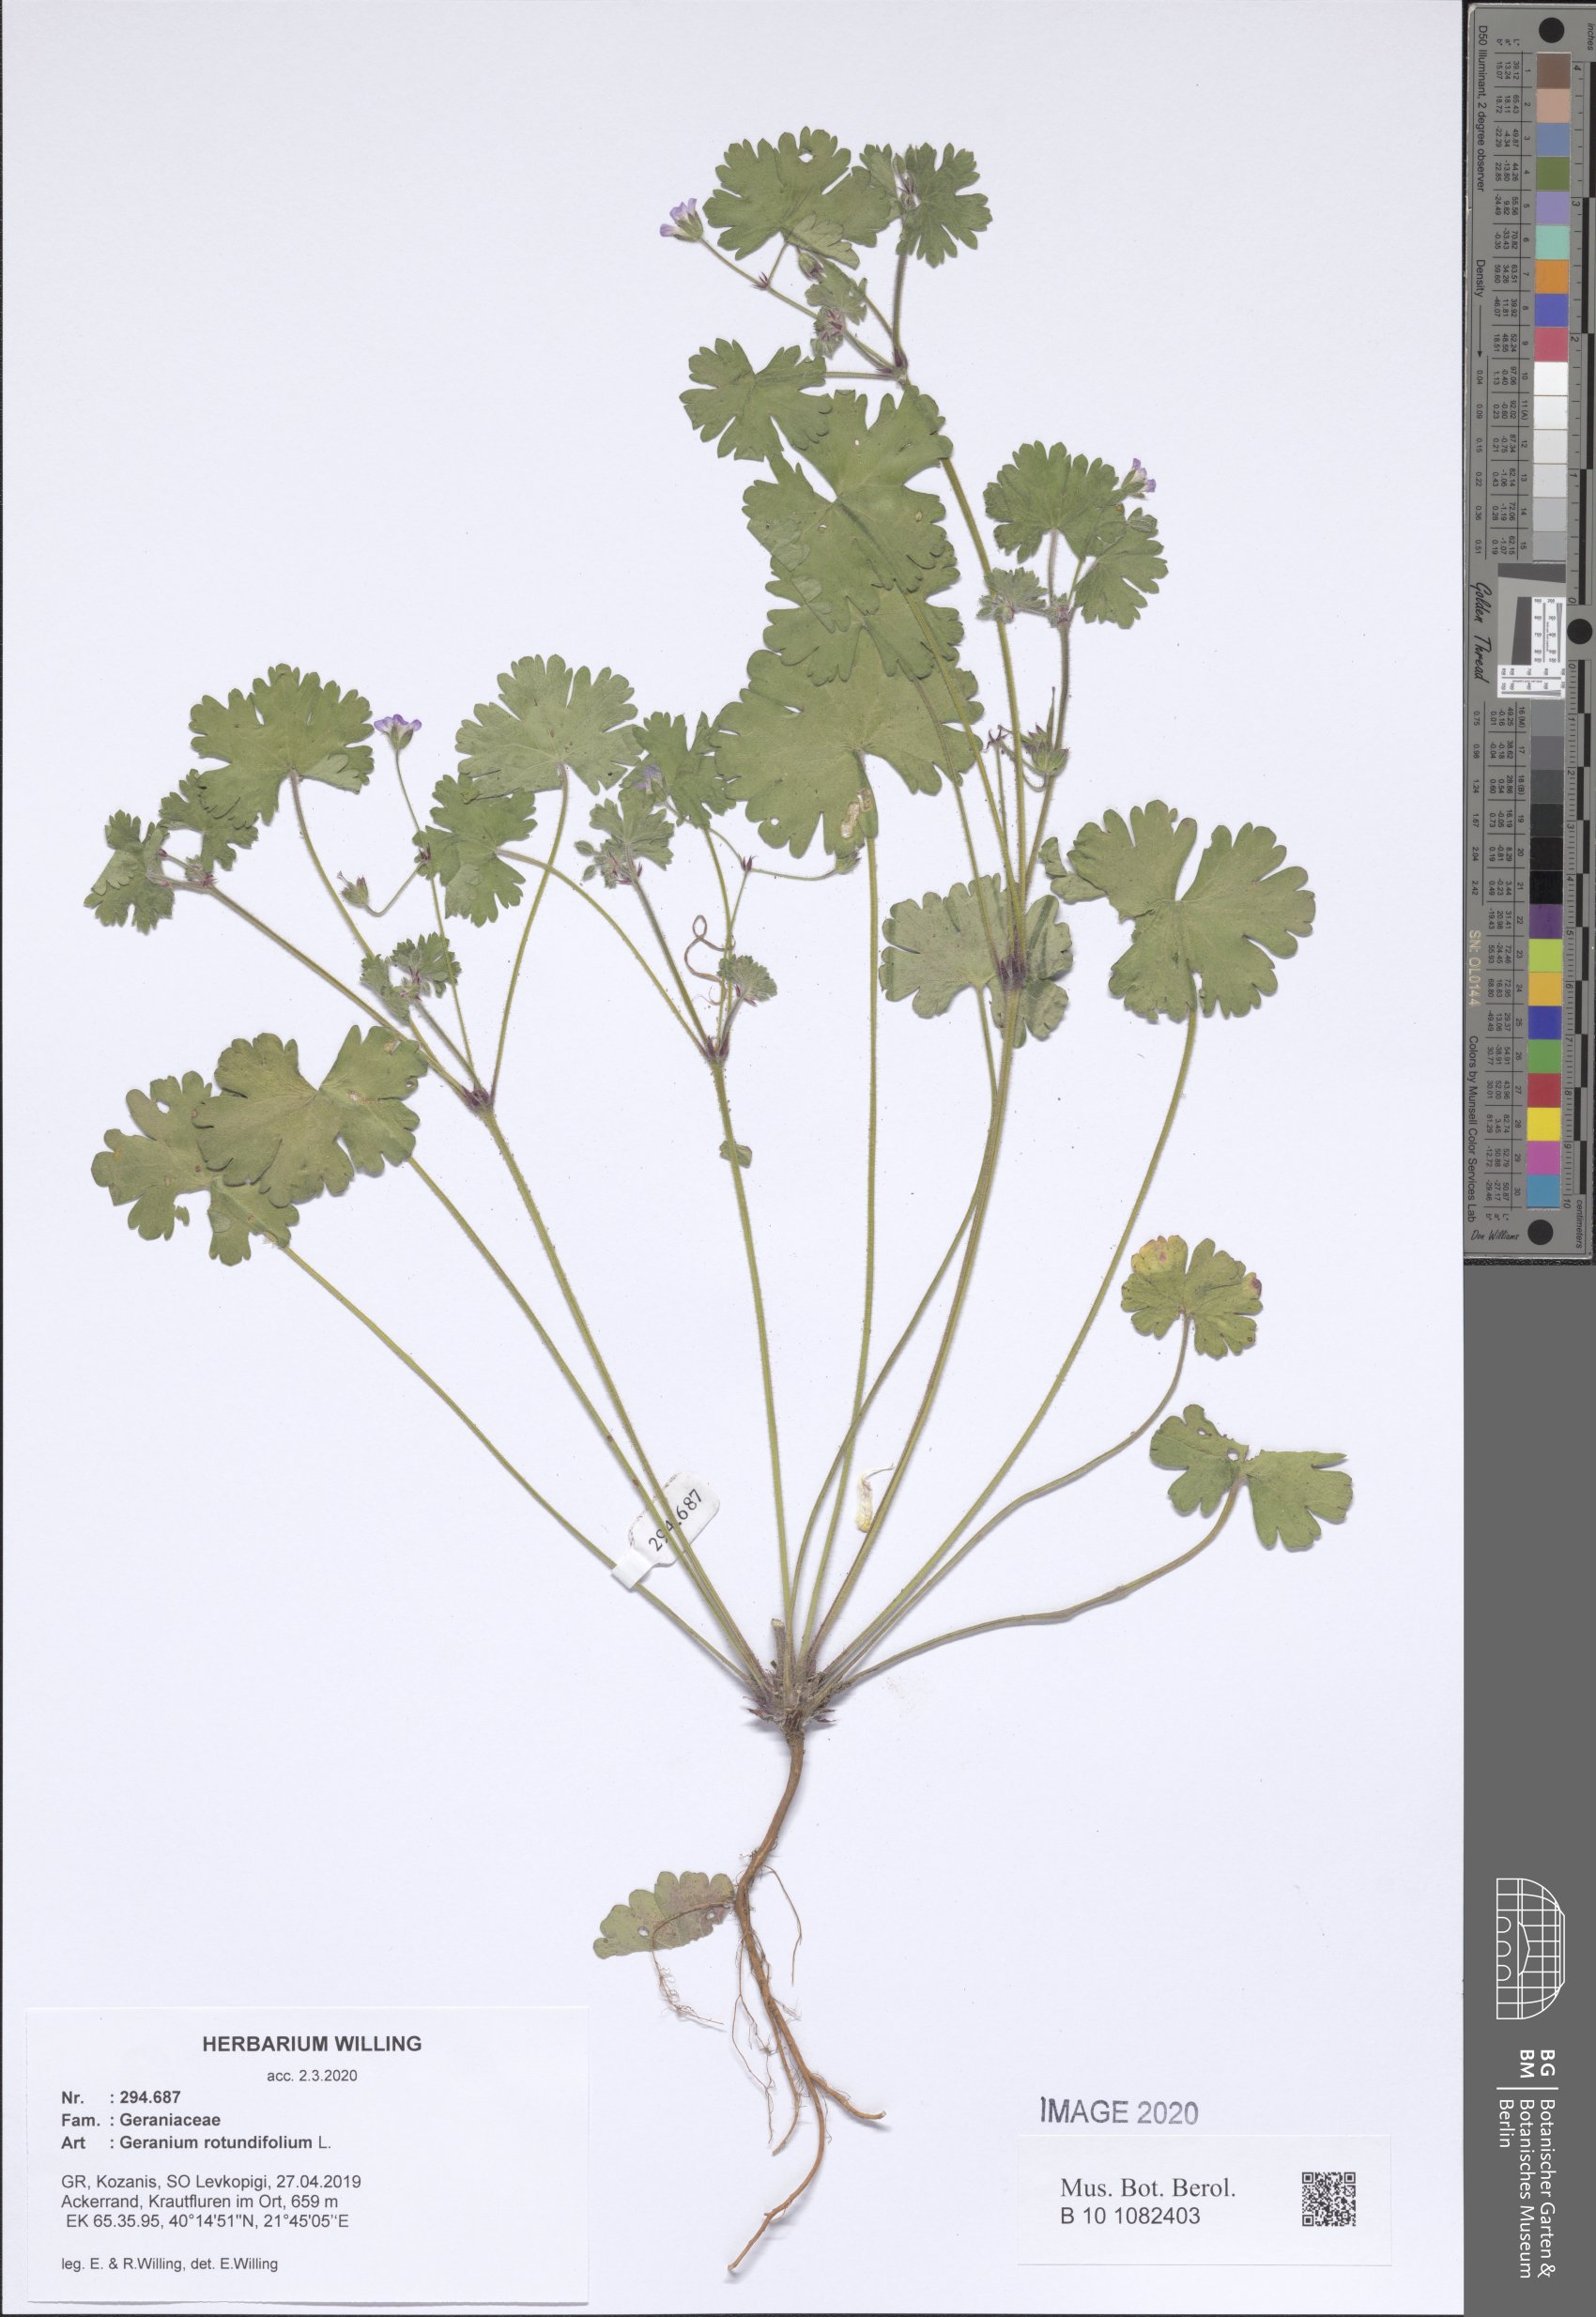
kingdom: Plantae
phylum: Tracheophyta
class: Magnoliopsida
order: Geraniales
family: Geraniaceae
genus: Geranium
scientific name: Geranium rotundifolium
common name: Round-leaved crane's-bill
